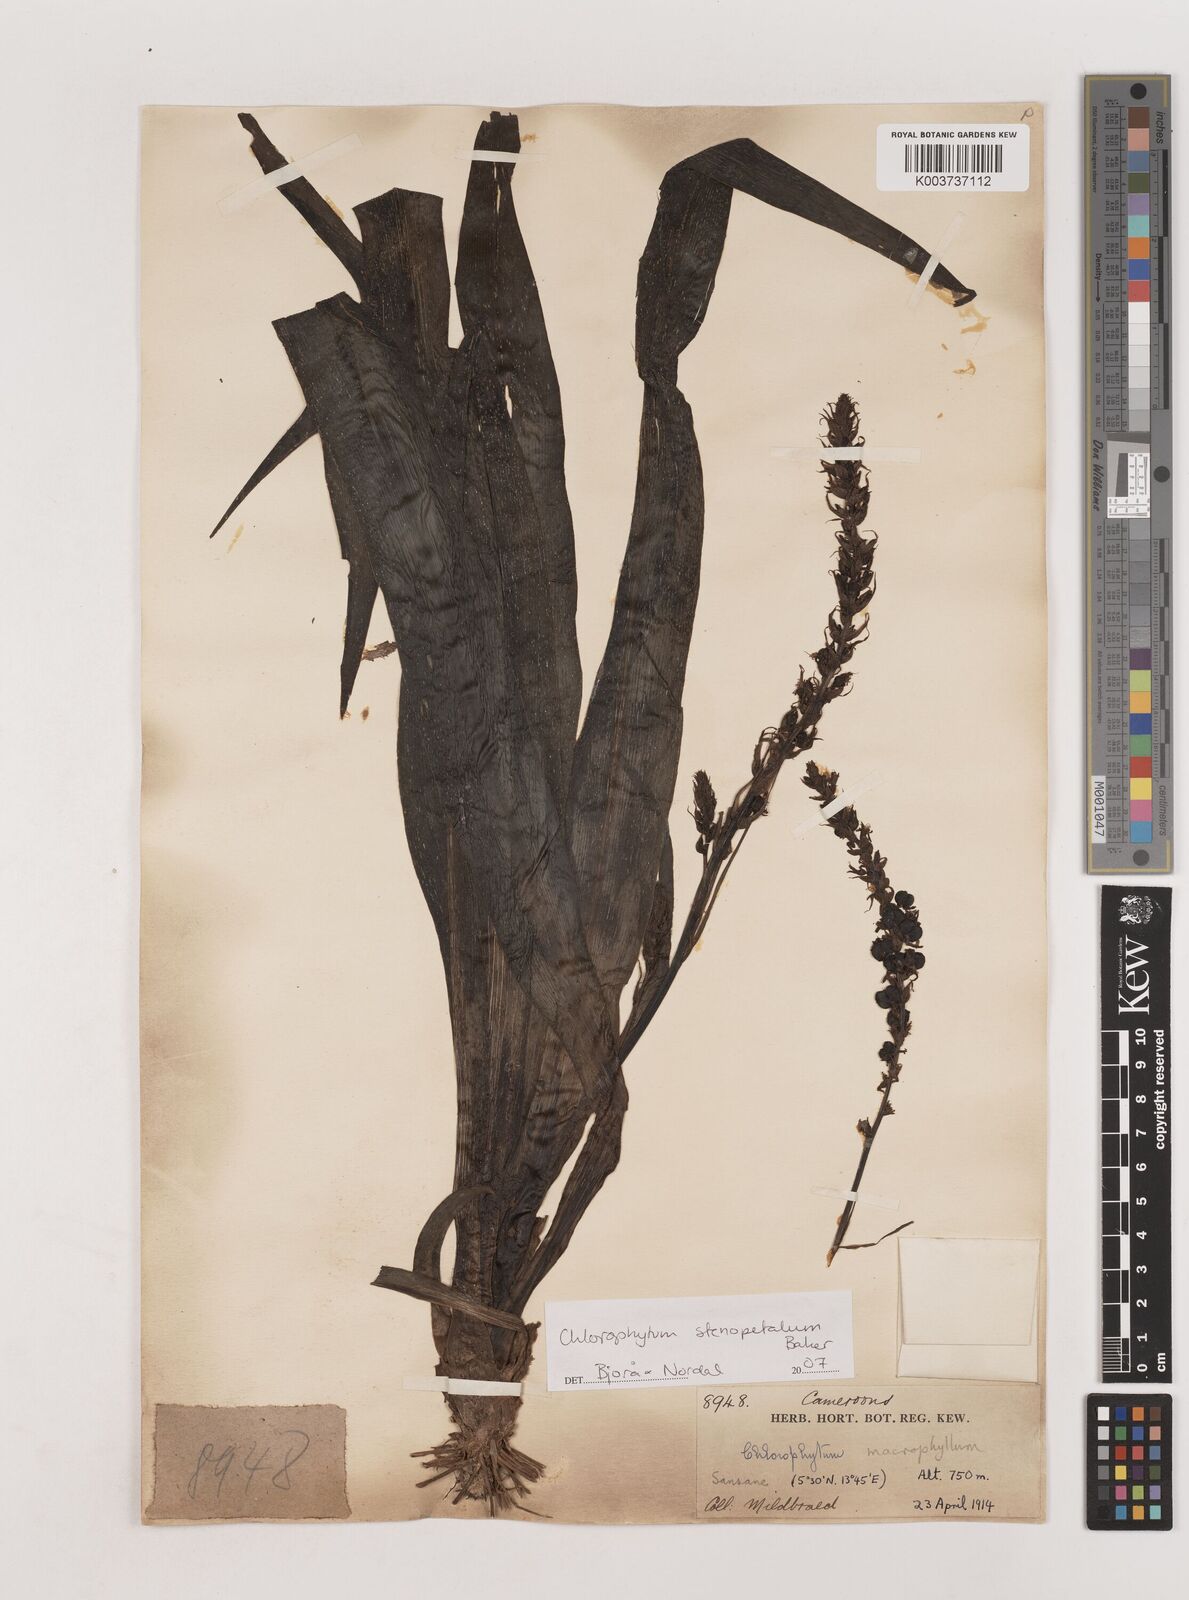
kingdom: Plantae
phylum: Tracheophyta
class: Liliopsida
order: Asparagales
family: Asparagaceae
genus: Chlorophytum
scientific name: Chlorophytum stenopetalum
